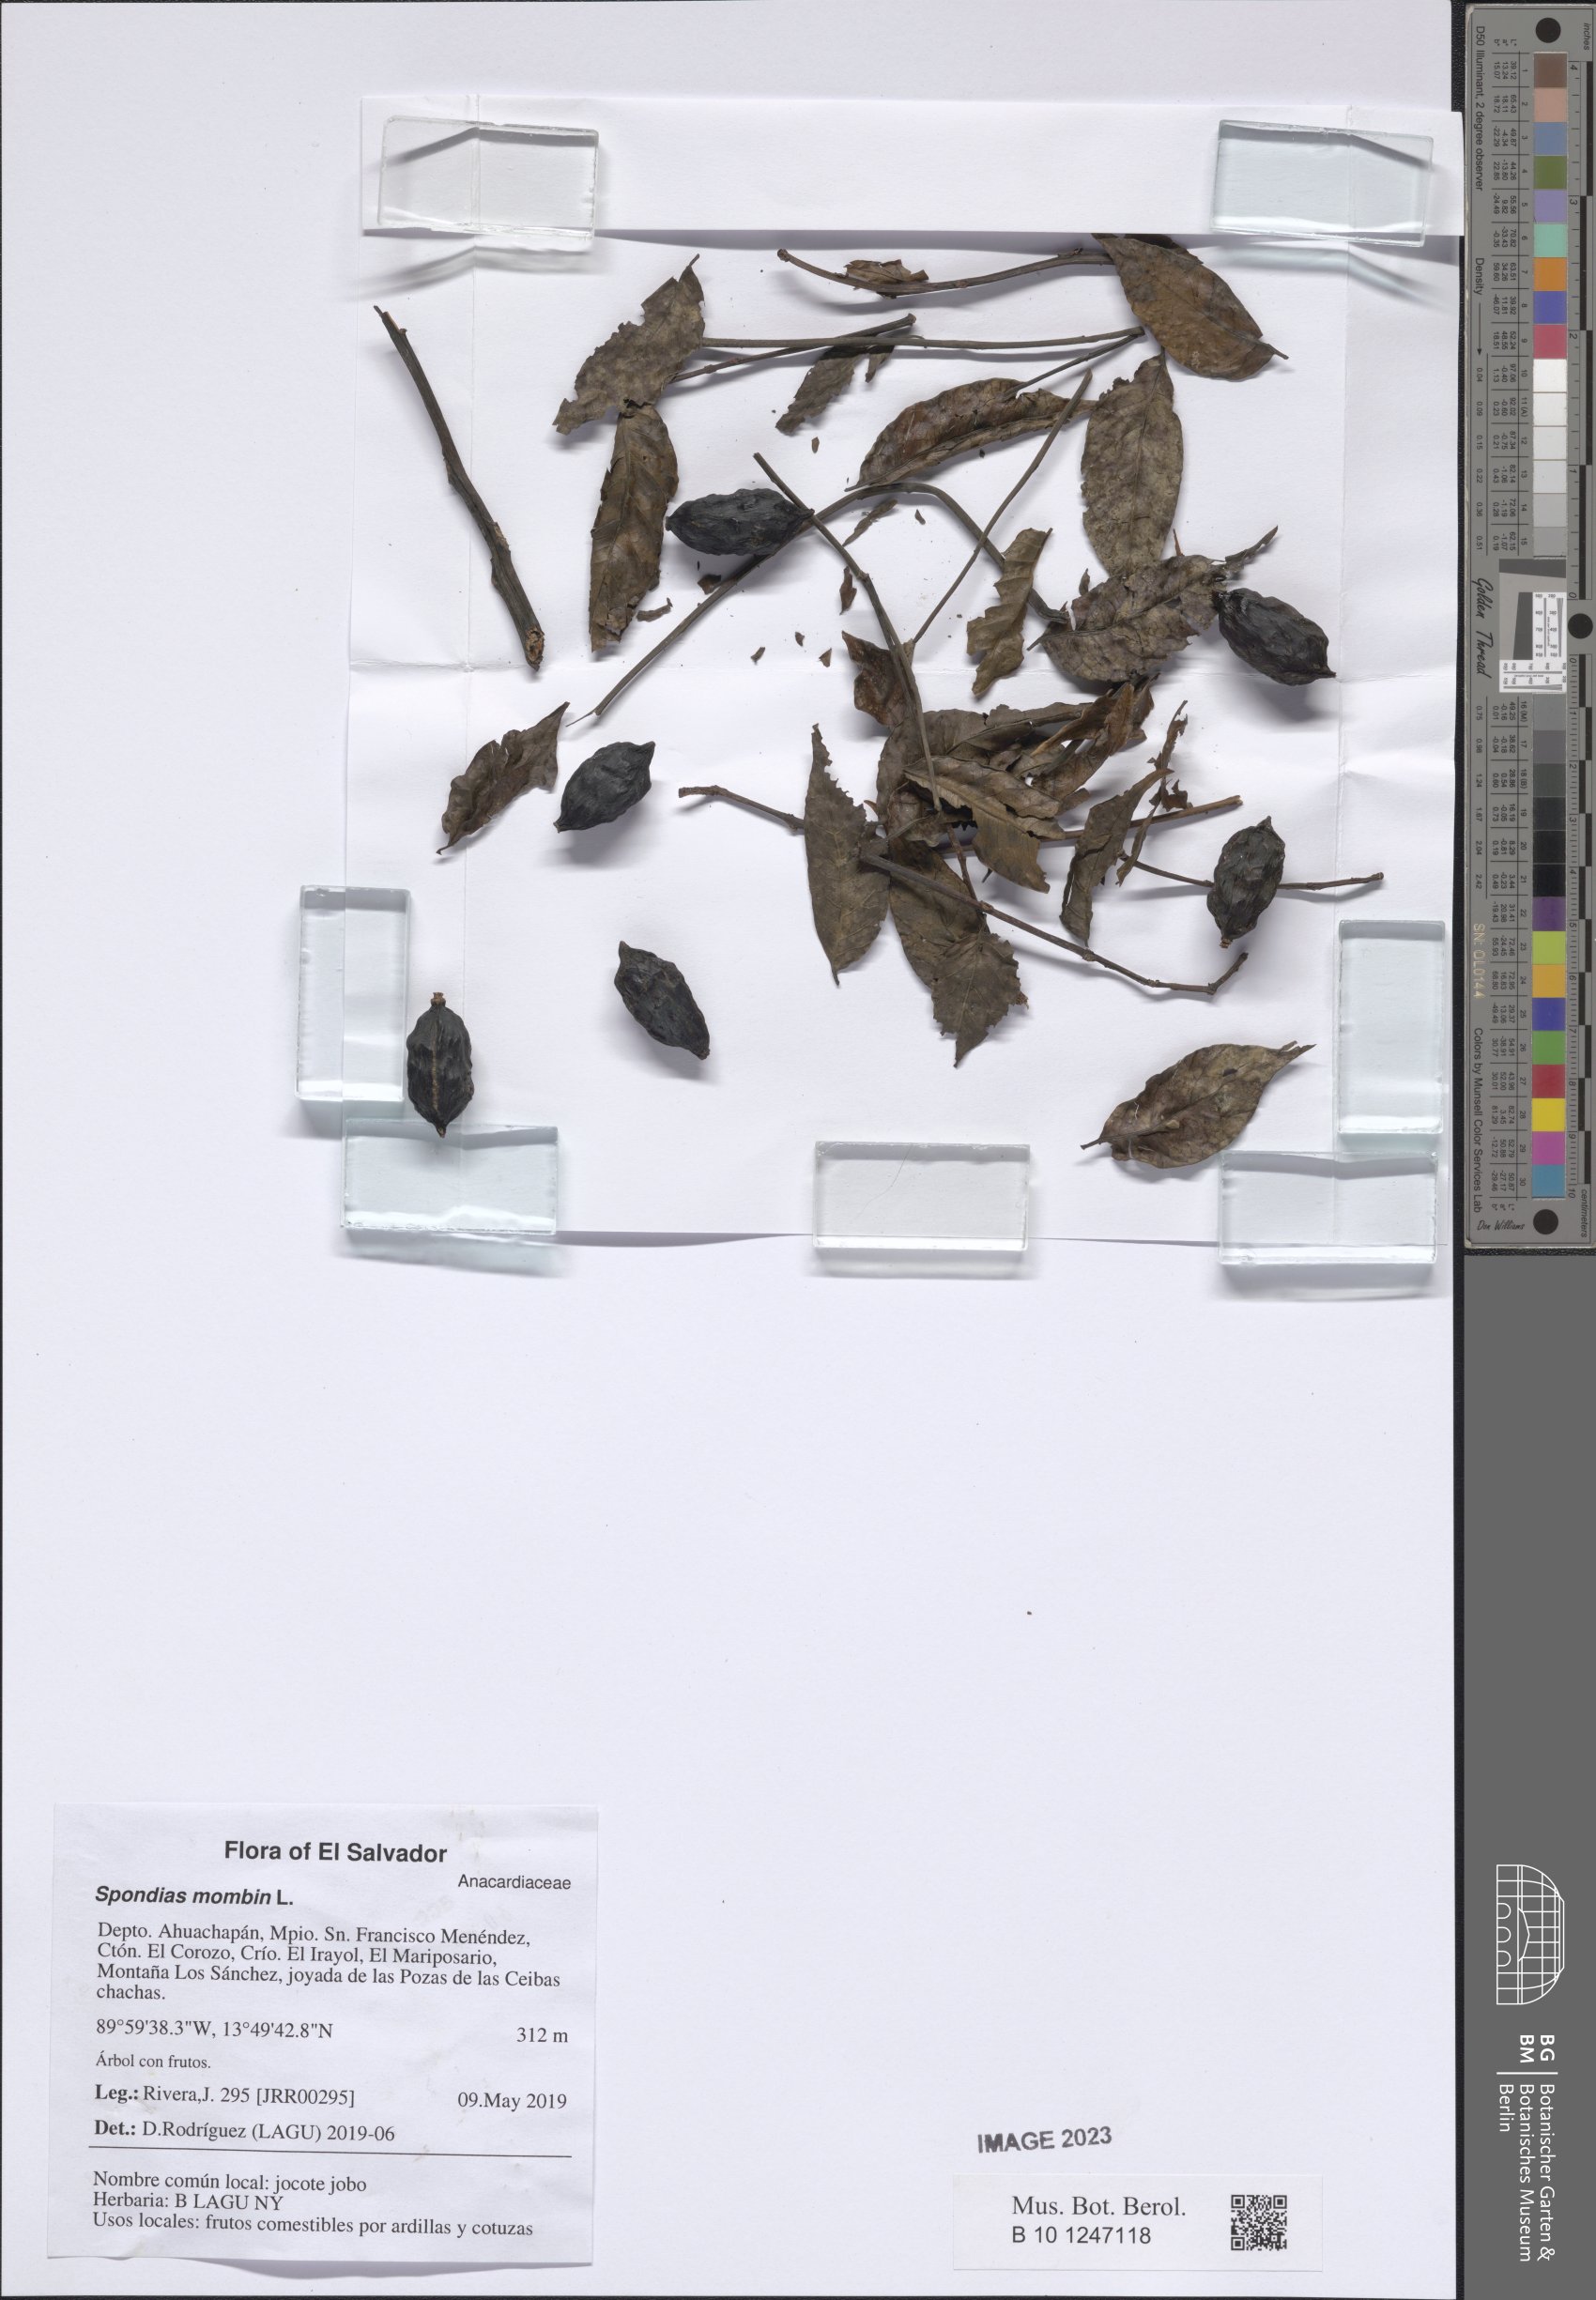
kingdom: Plantae
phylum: Tracheophyta
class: Magnoliopsida
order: Sapindales
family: Anacardiaceae
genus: Spondias
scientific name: Spondias mombin
